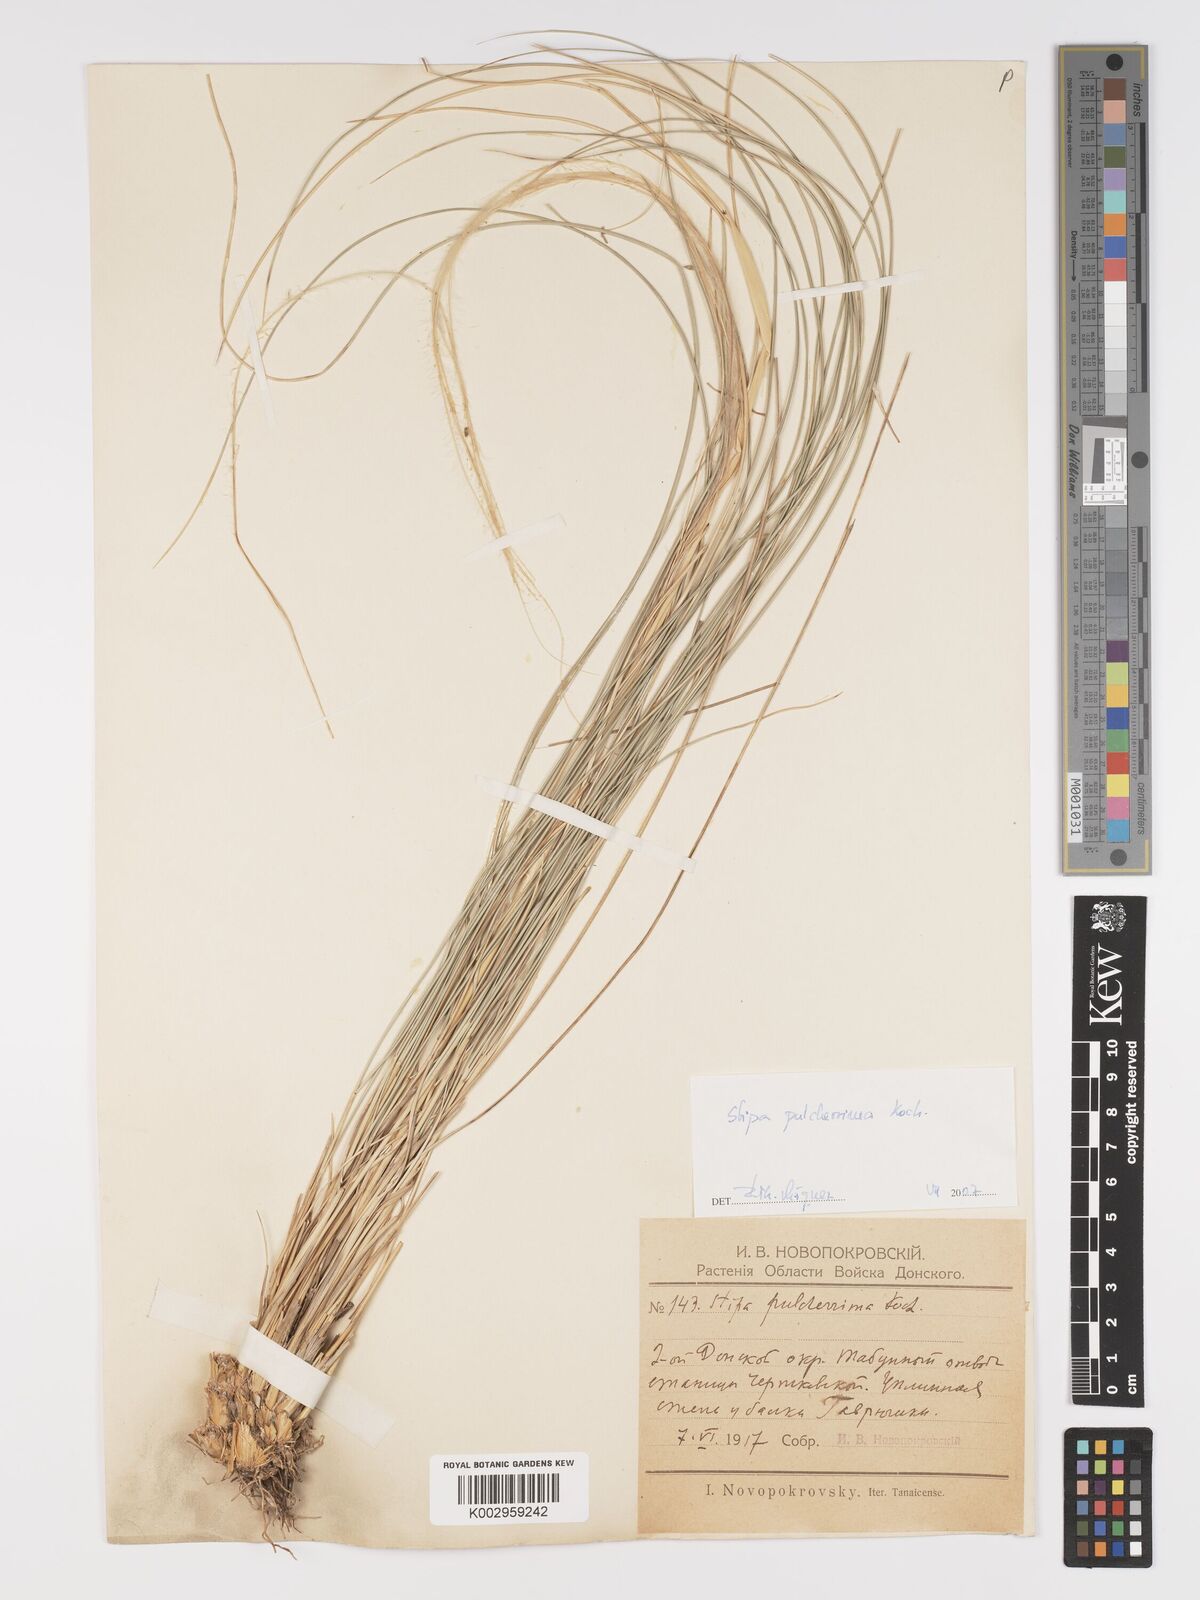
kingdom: Plantae
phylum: Tracheophyta
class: Liliopsida
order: Poales
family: Poaceae
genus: Stipa
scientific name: Stipa pulcherrima
